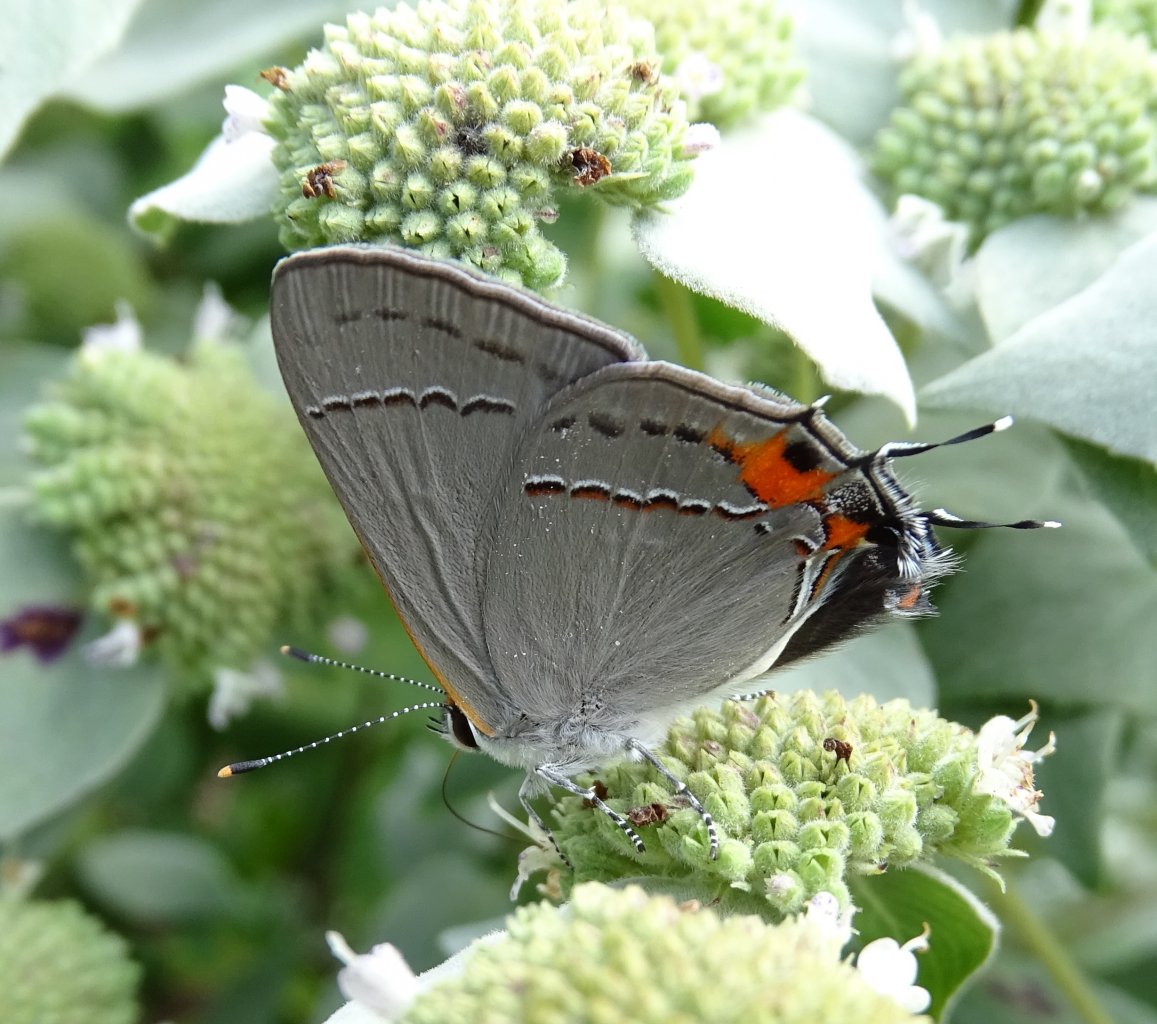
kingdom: Animalia
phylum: Arthropoda
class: Insecta
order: Lepidoptera
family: Lycaenidae
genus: Strymon
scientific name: Strymon melinus
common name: Gray Hairstreak
